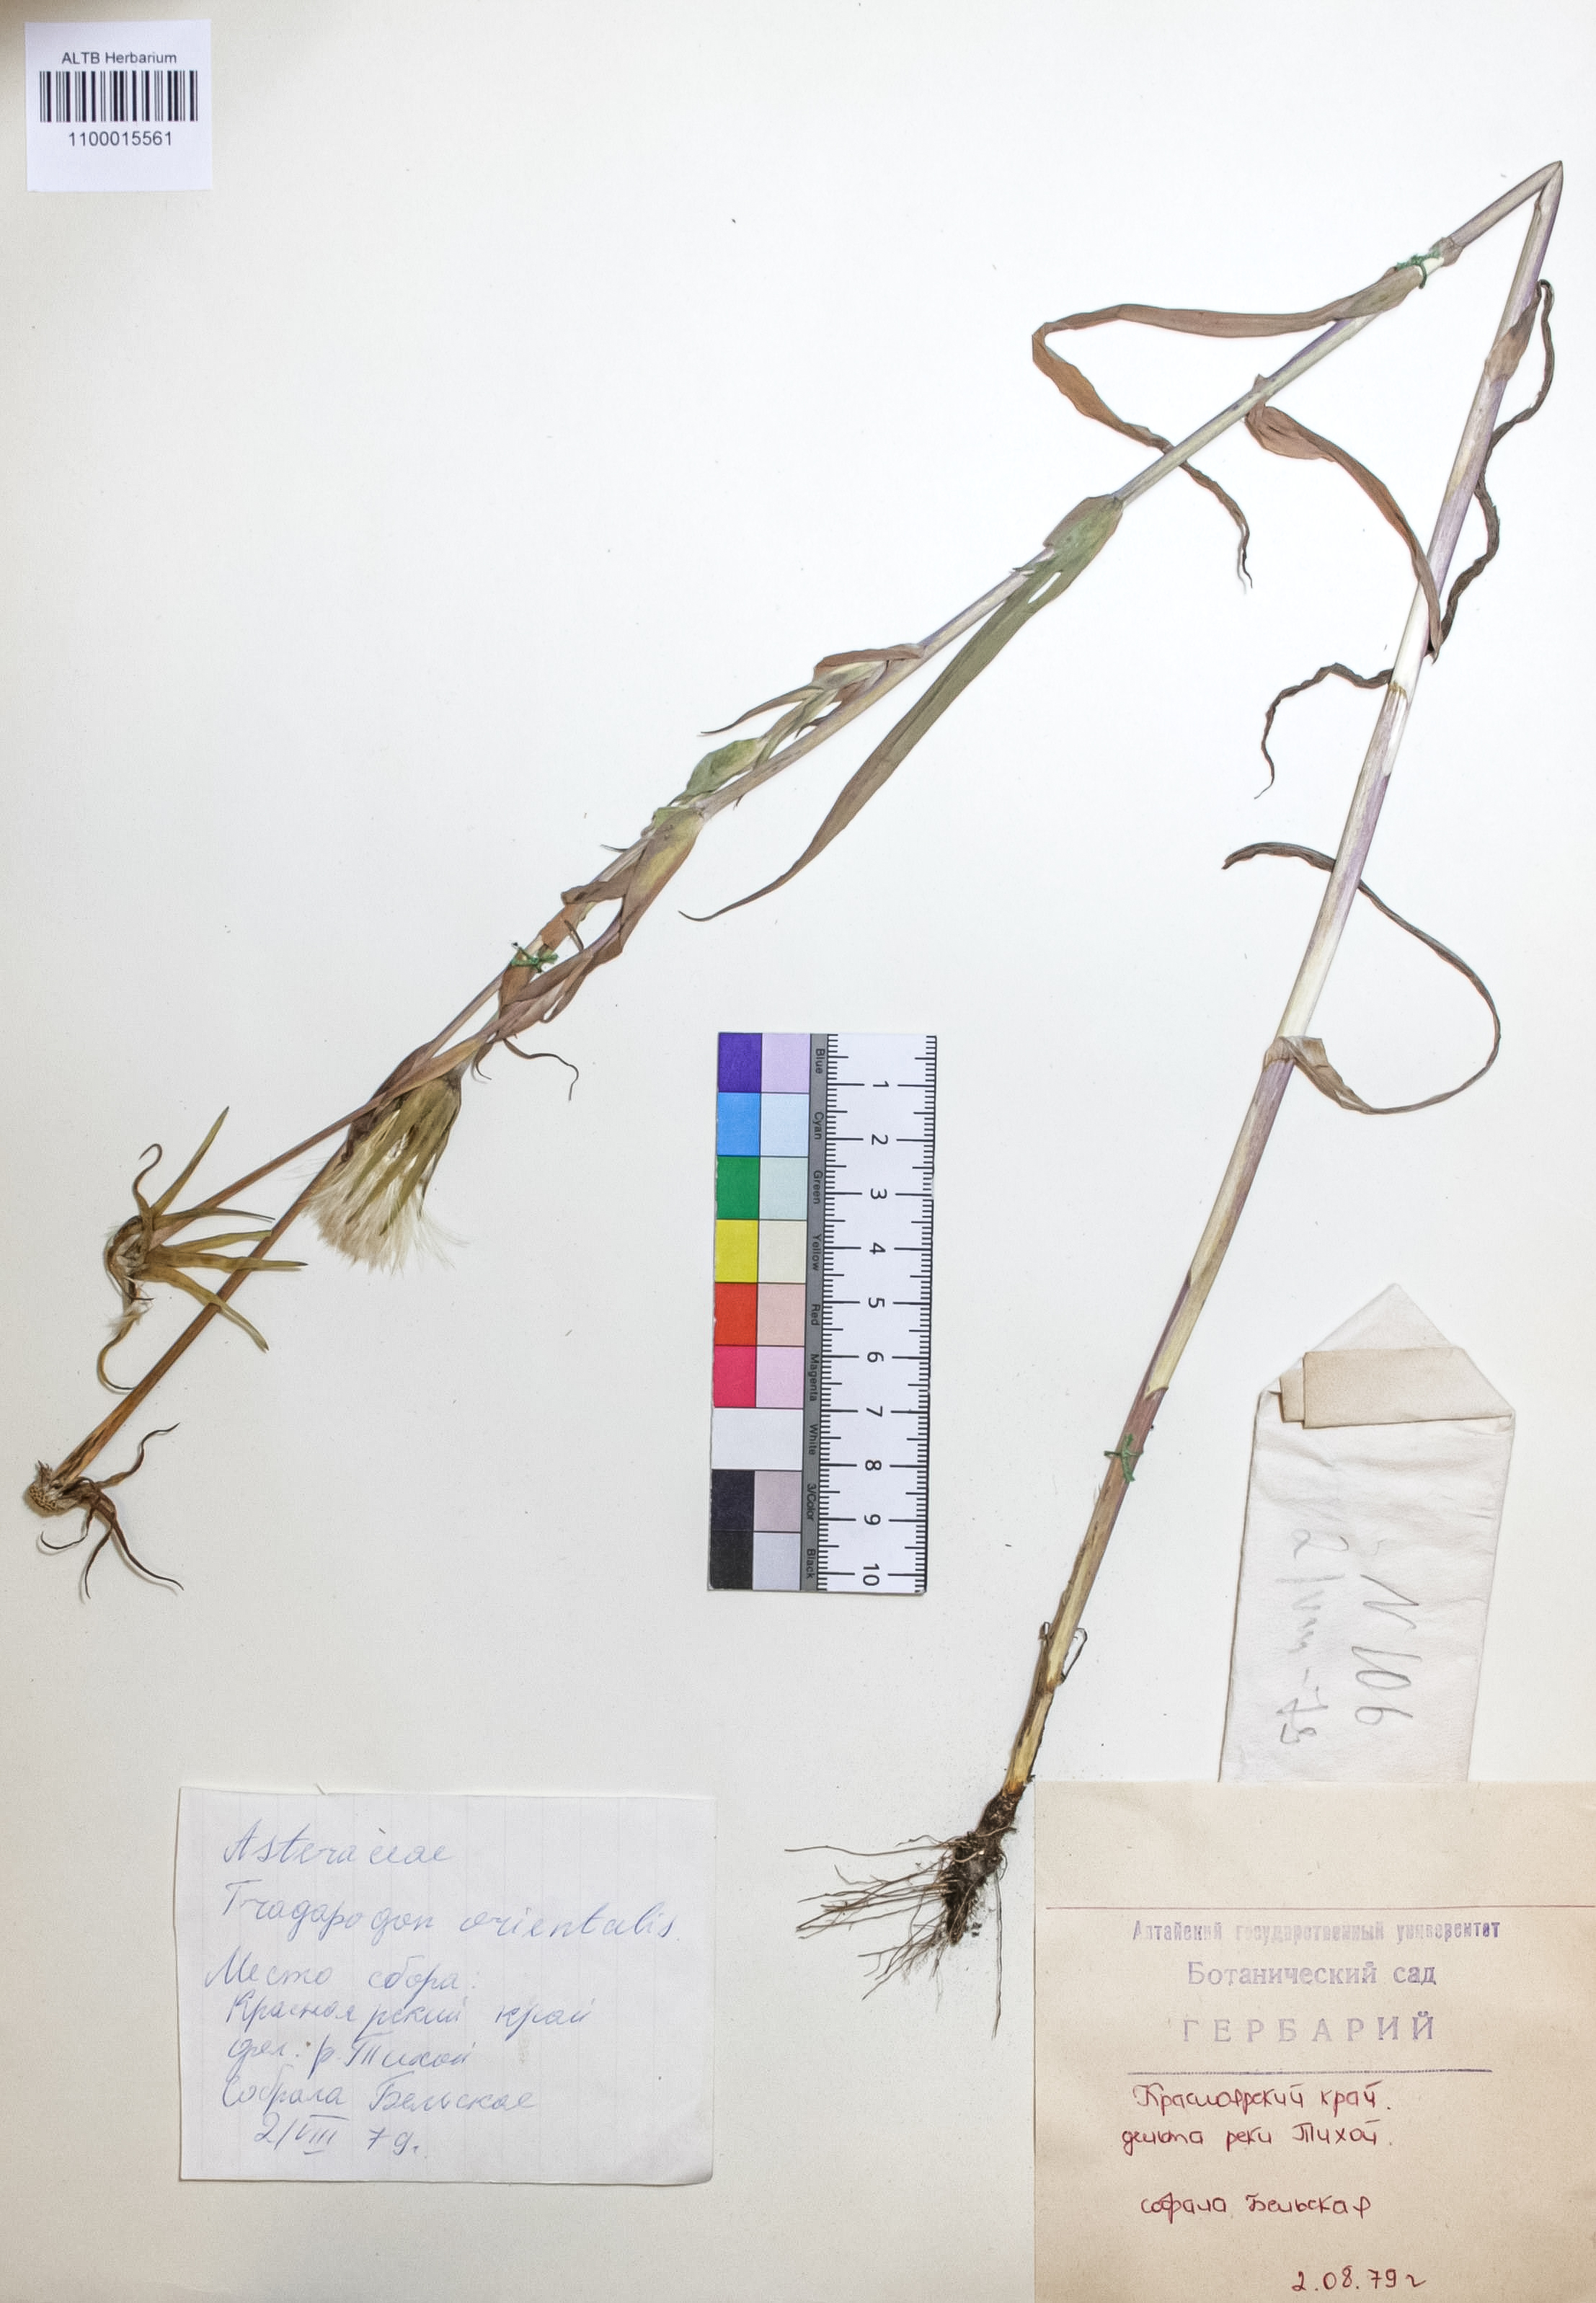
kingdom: Plantae
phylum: Tracheophyta
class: Magnoliopsida
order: Asterales
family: Asteraceae
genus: Tragopogon
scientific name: Tragopogon orientalis
